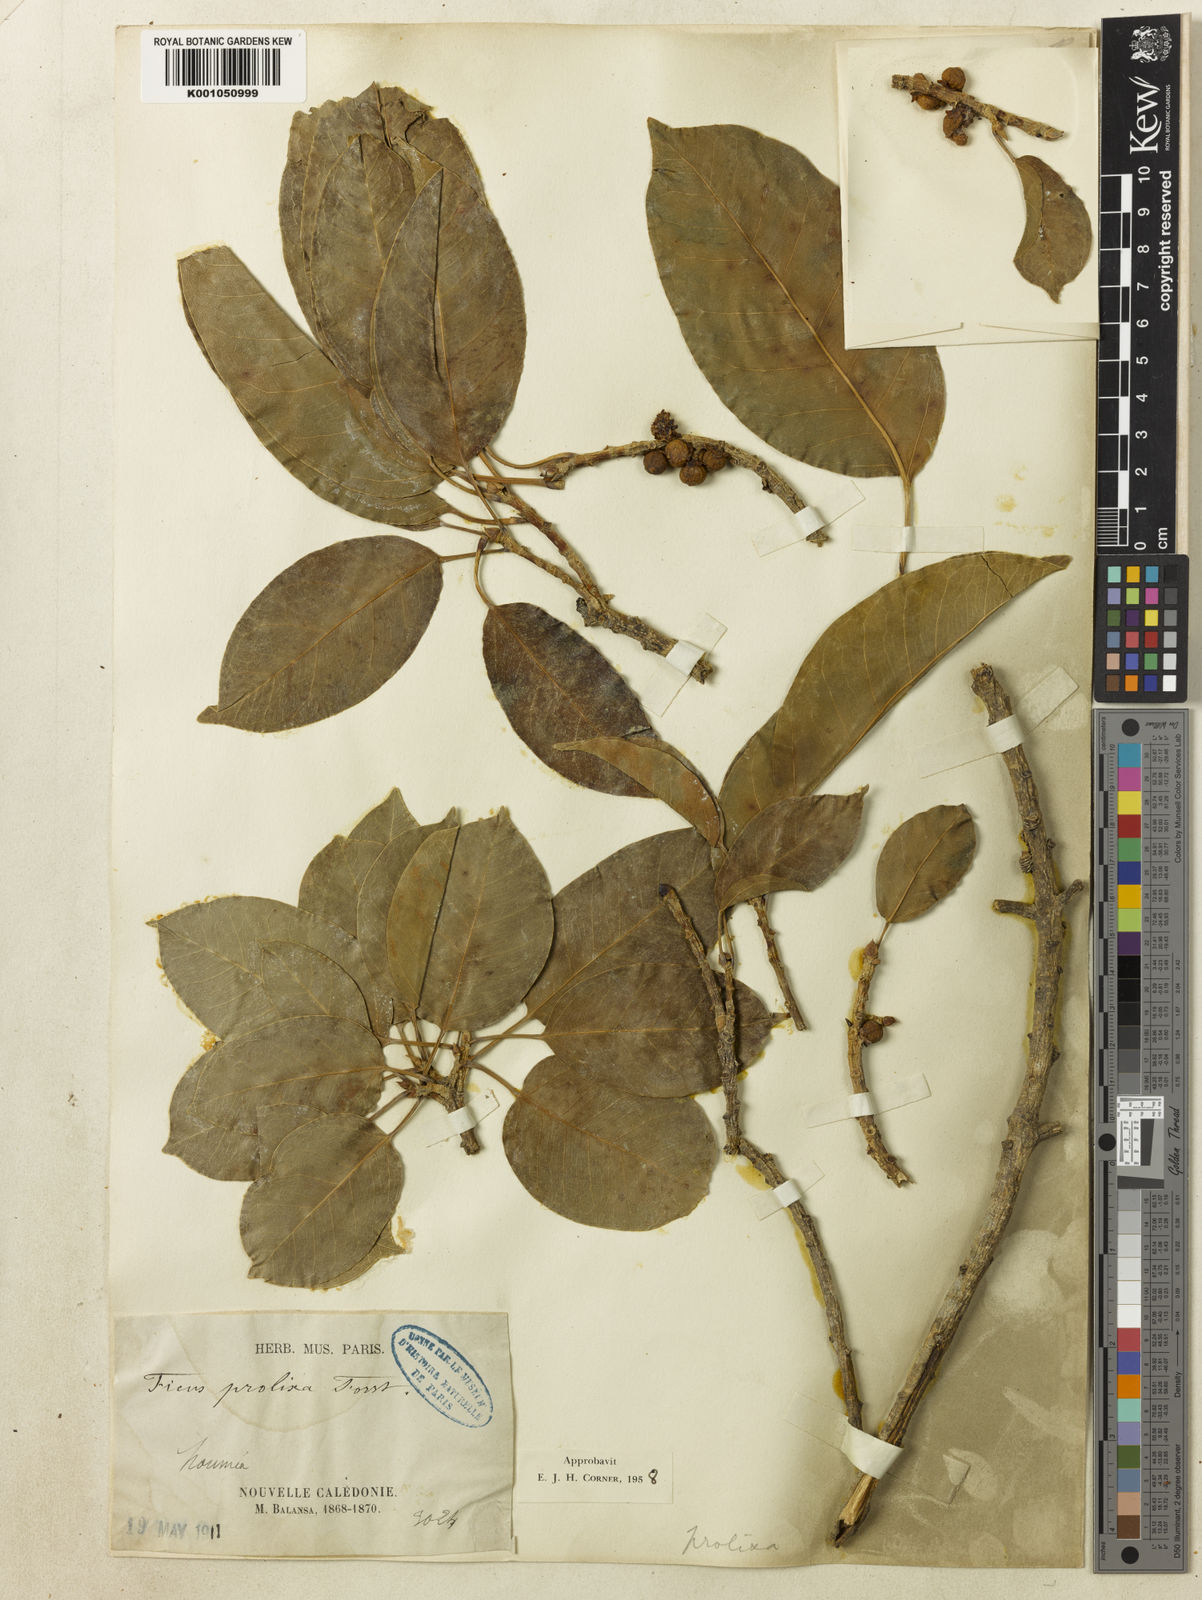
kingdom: Plantae
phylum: Tracheophyta
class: Magnoliopsida
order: Rosales
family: Moraceae
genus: Ficus
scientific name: Ficus prolixa
